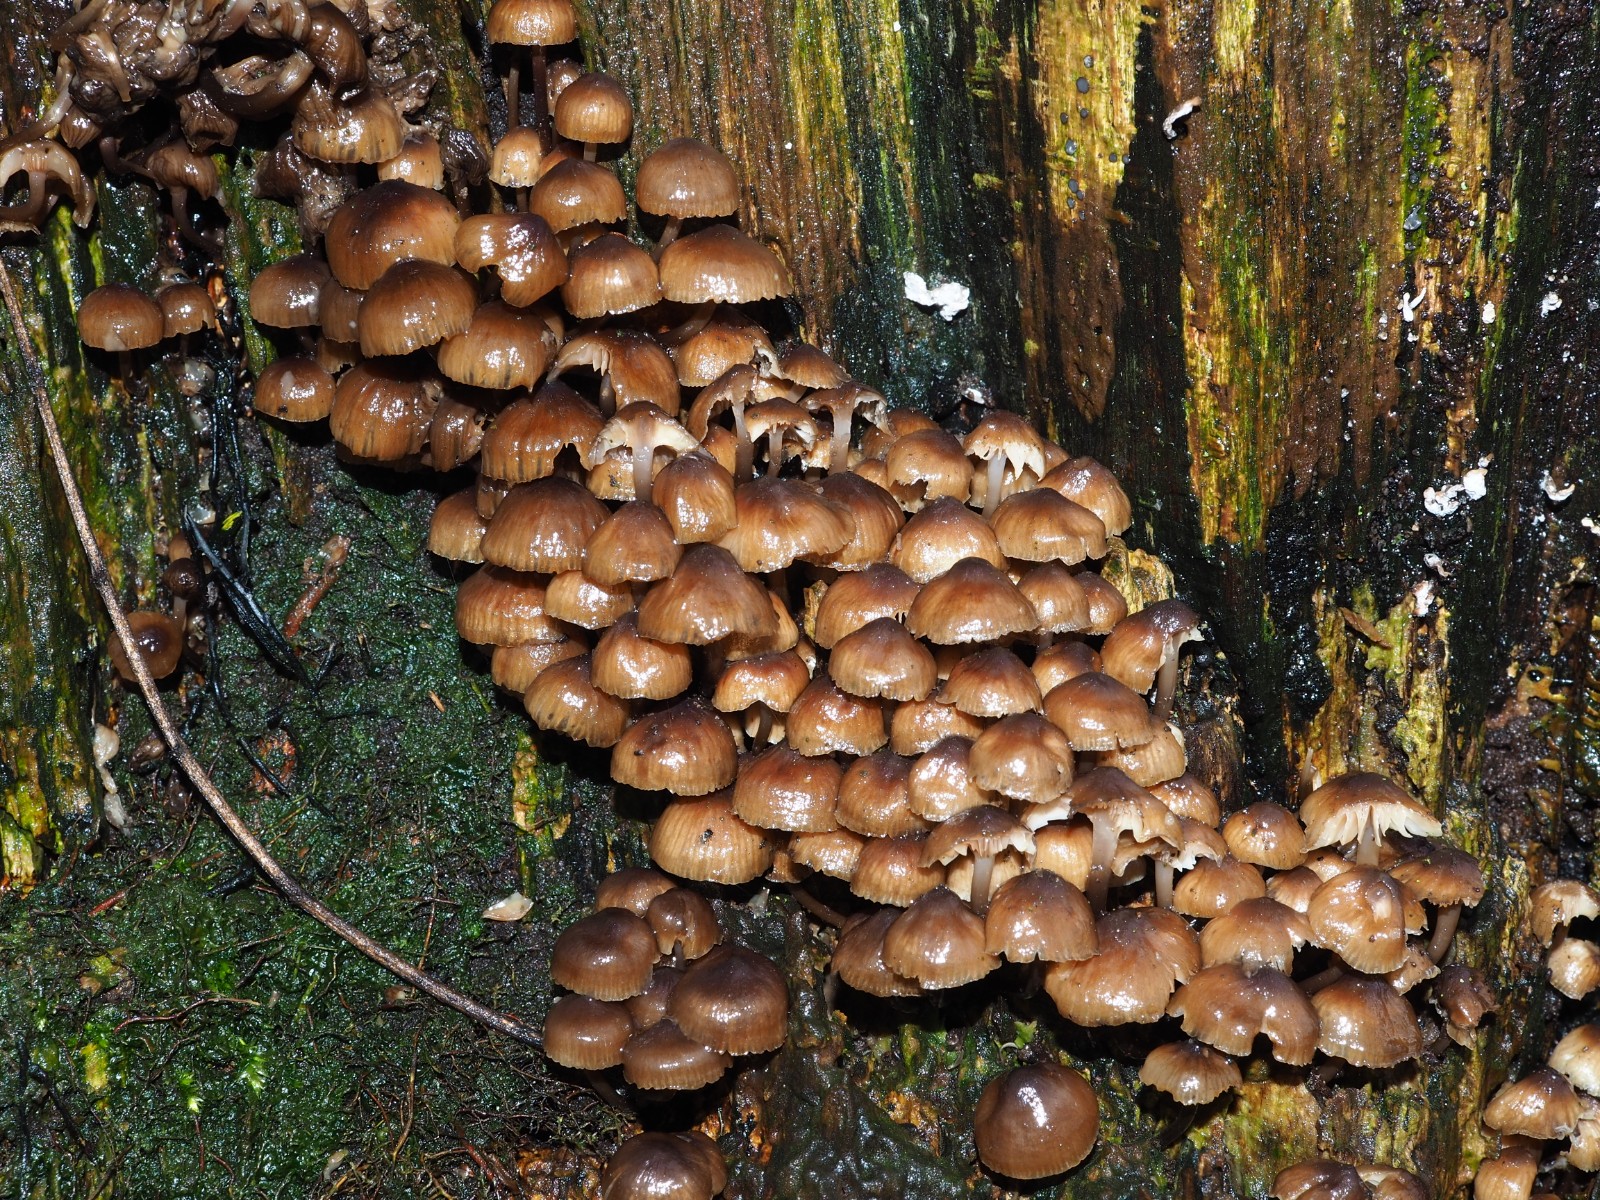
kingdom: Fungi
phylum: Basidiomycota
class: Agaricomycetes
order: Agaricales
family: Mycenaceae
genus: Mycena
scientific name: Mycena tintinnabulum
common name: vinter-huesvamp
